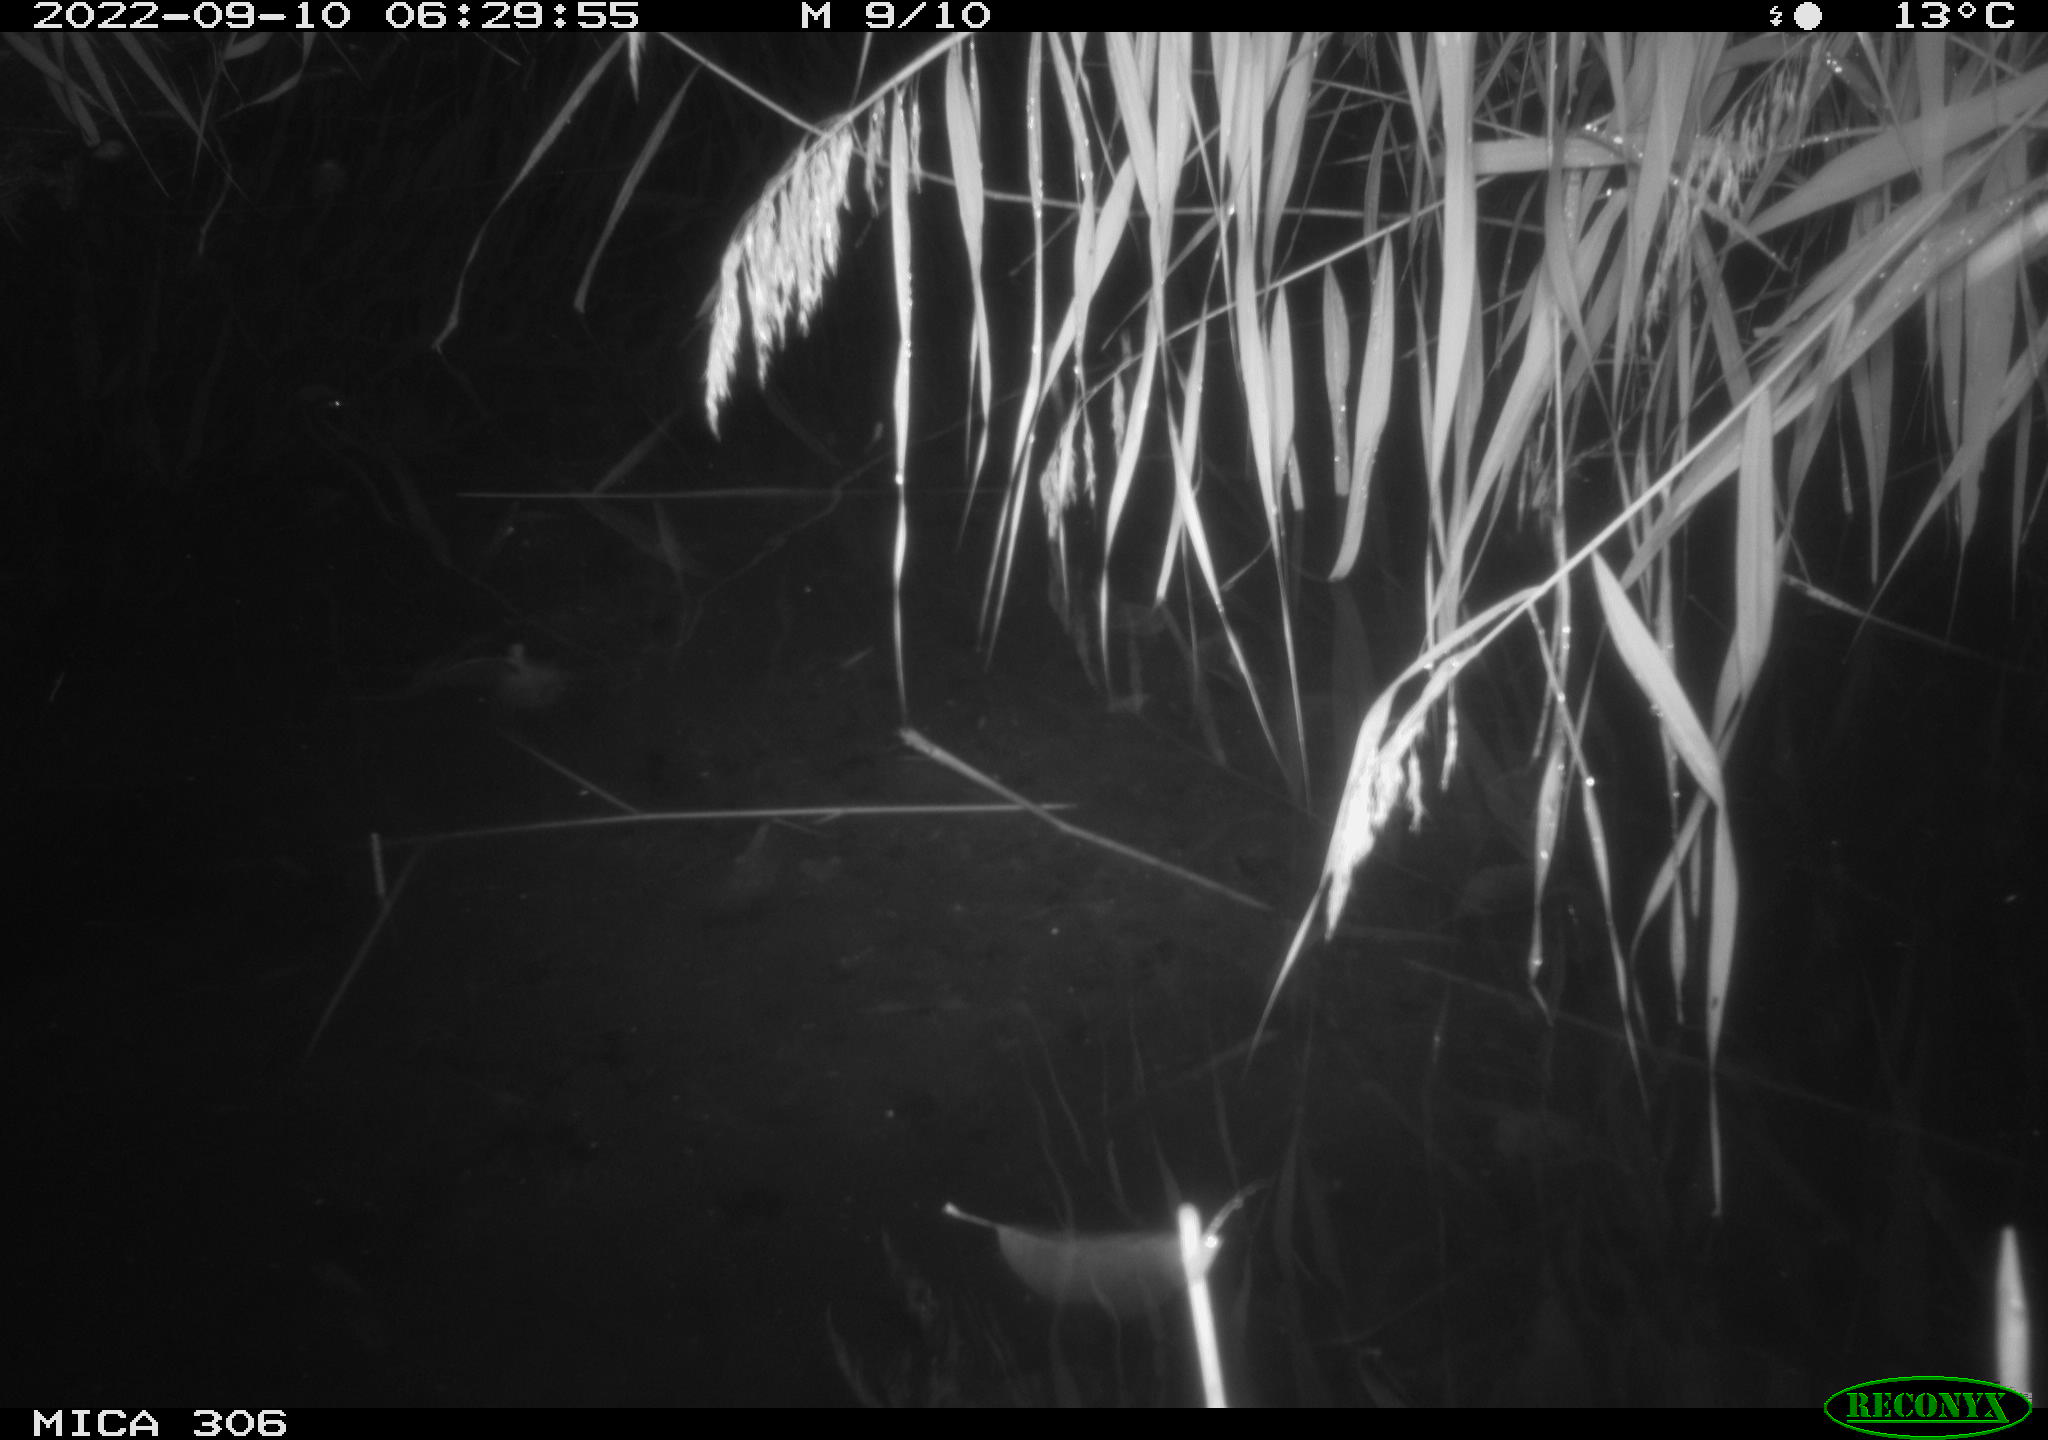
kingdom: Animalia
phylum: Chordata
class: Mammalia
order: Rodentia
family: Muridae
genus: Rattus
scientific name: Rattus norvegicus
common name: Brown rat
